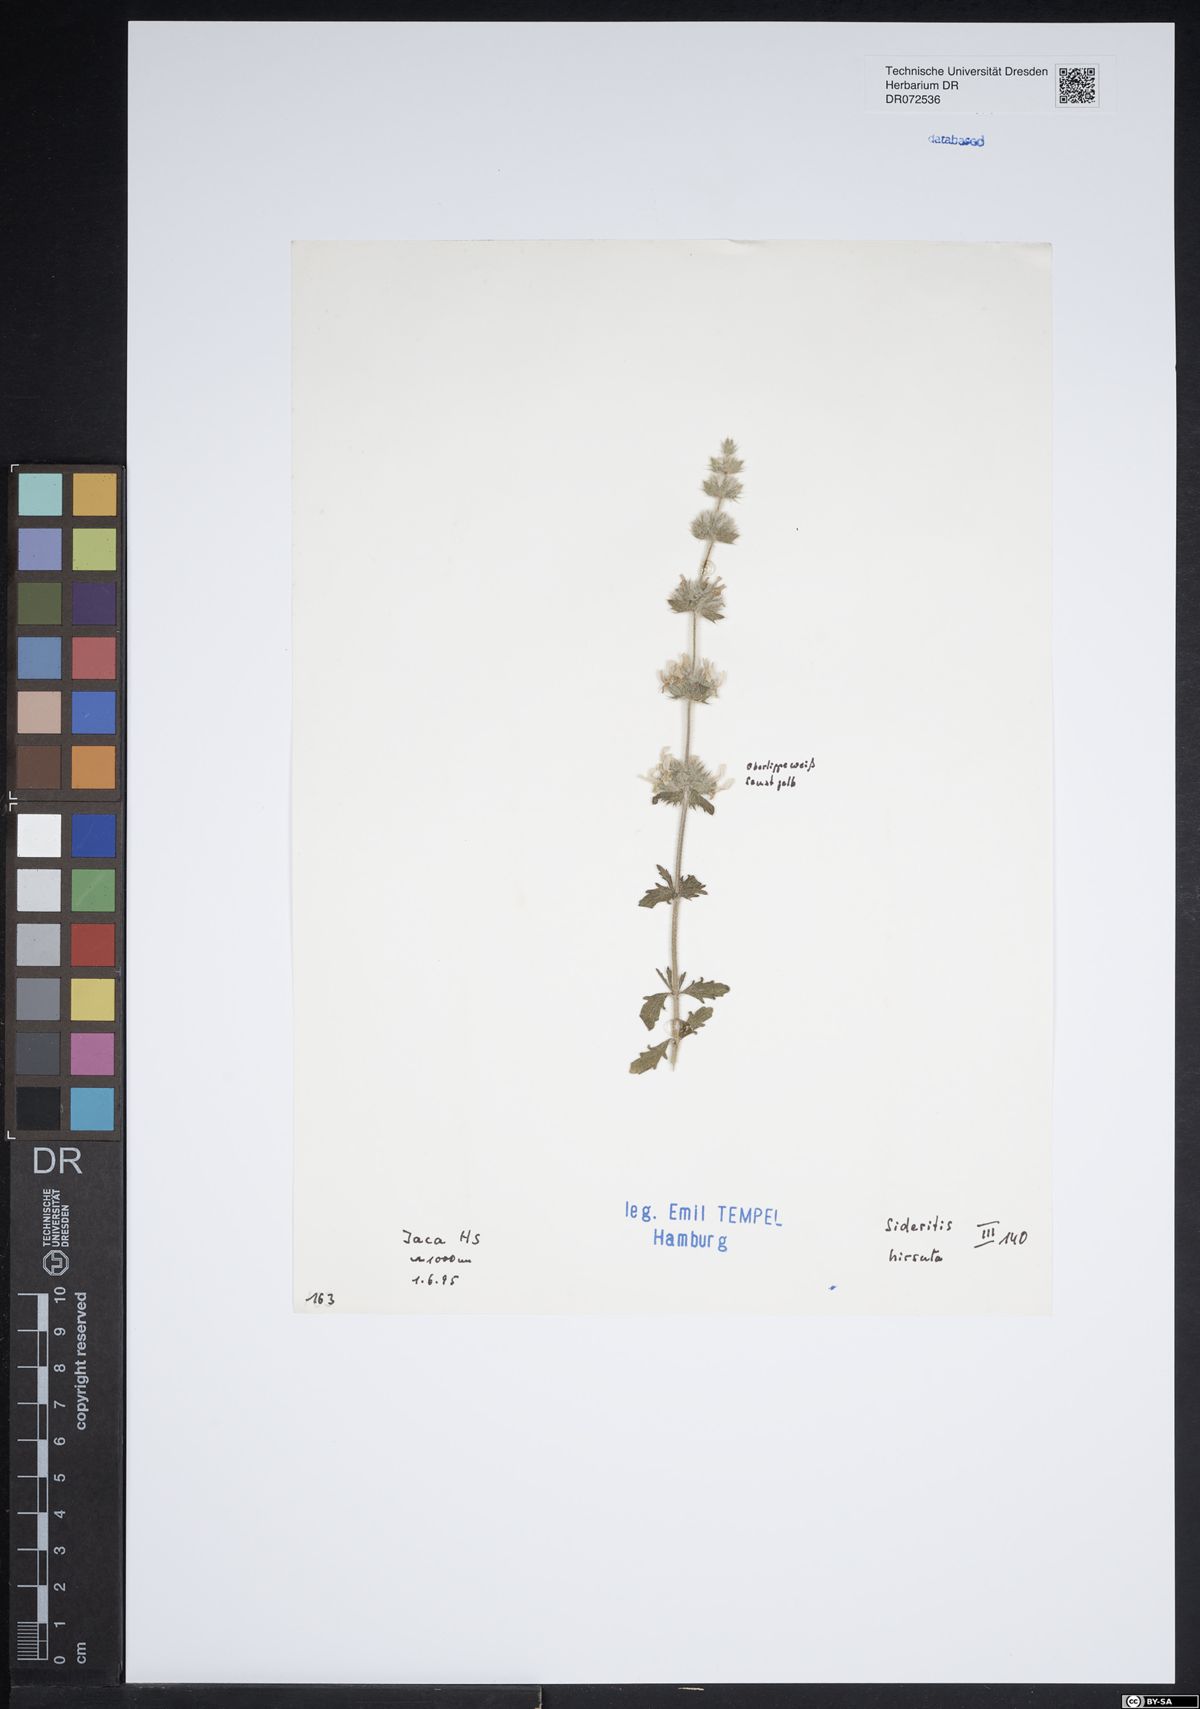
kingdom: Plantae
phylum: Tracheophyta
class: Magnoliopsida
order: Lamiales
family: Lamiaceae
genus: Sideritis
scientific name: Sideritis hirsuta
